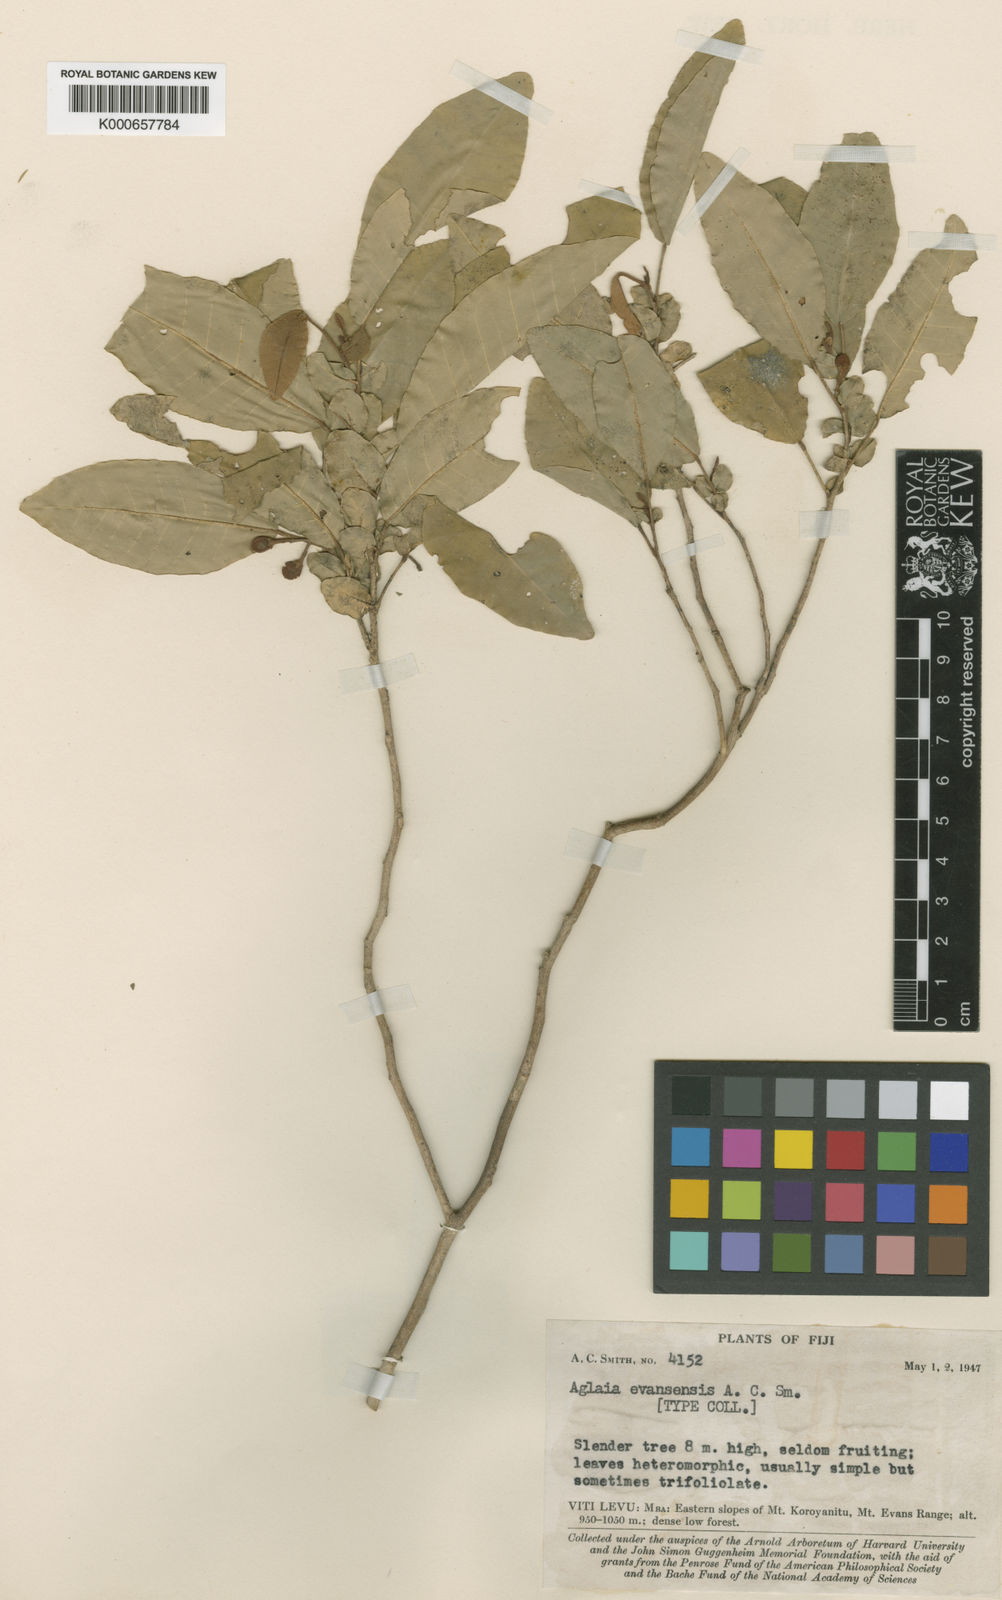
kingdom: Plantae
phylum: Tracheophyta
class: Magnoliopsida
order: Sapindales
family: Meliaceae
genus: Aglaia
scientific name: Aglaia evansensis
